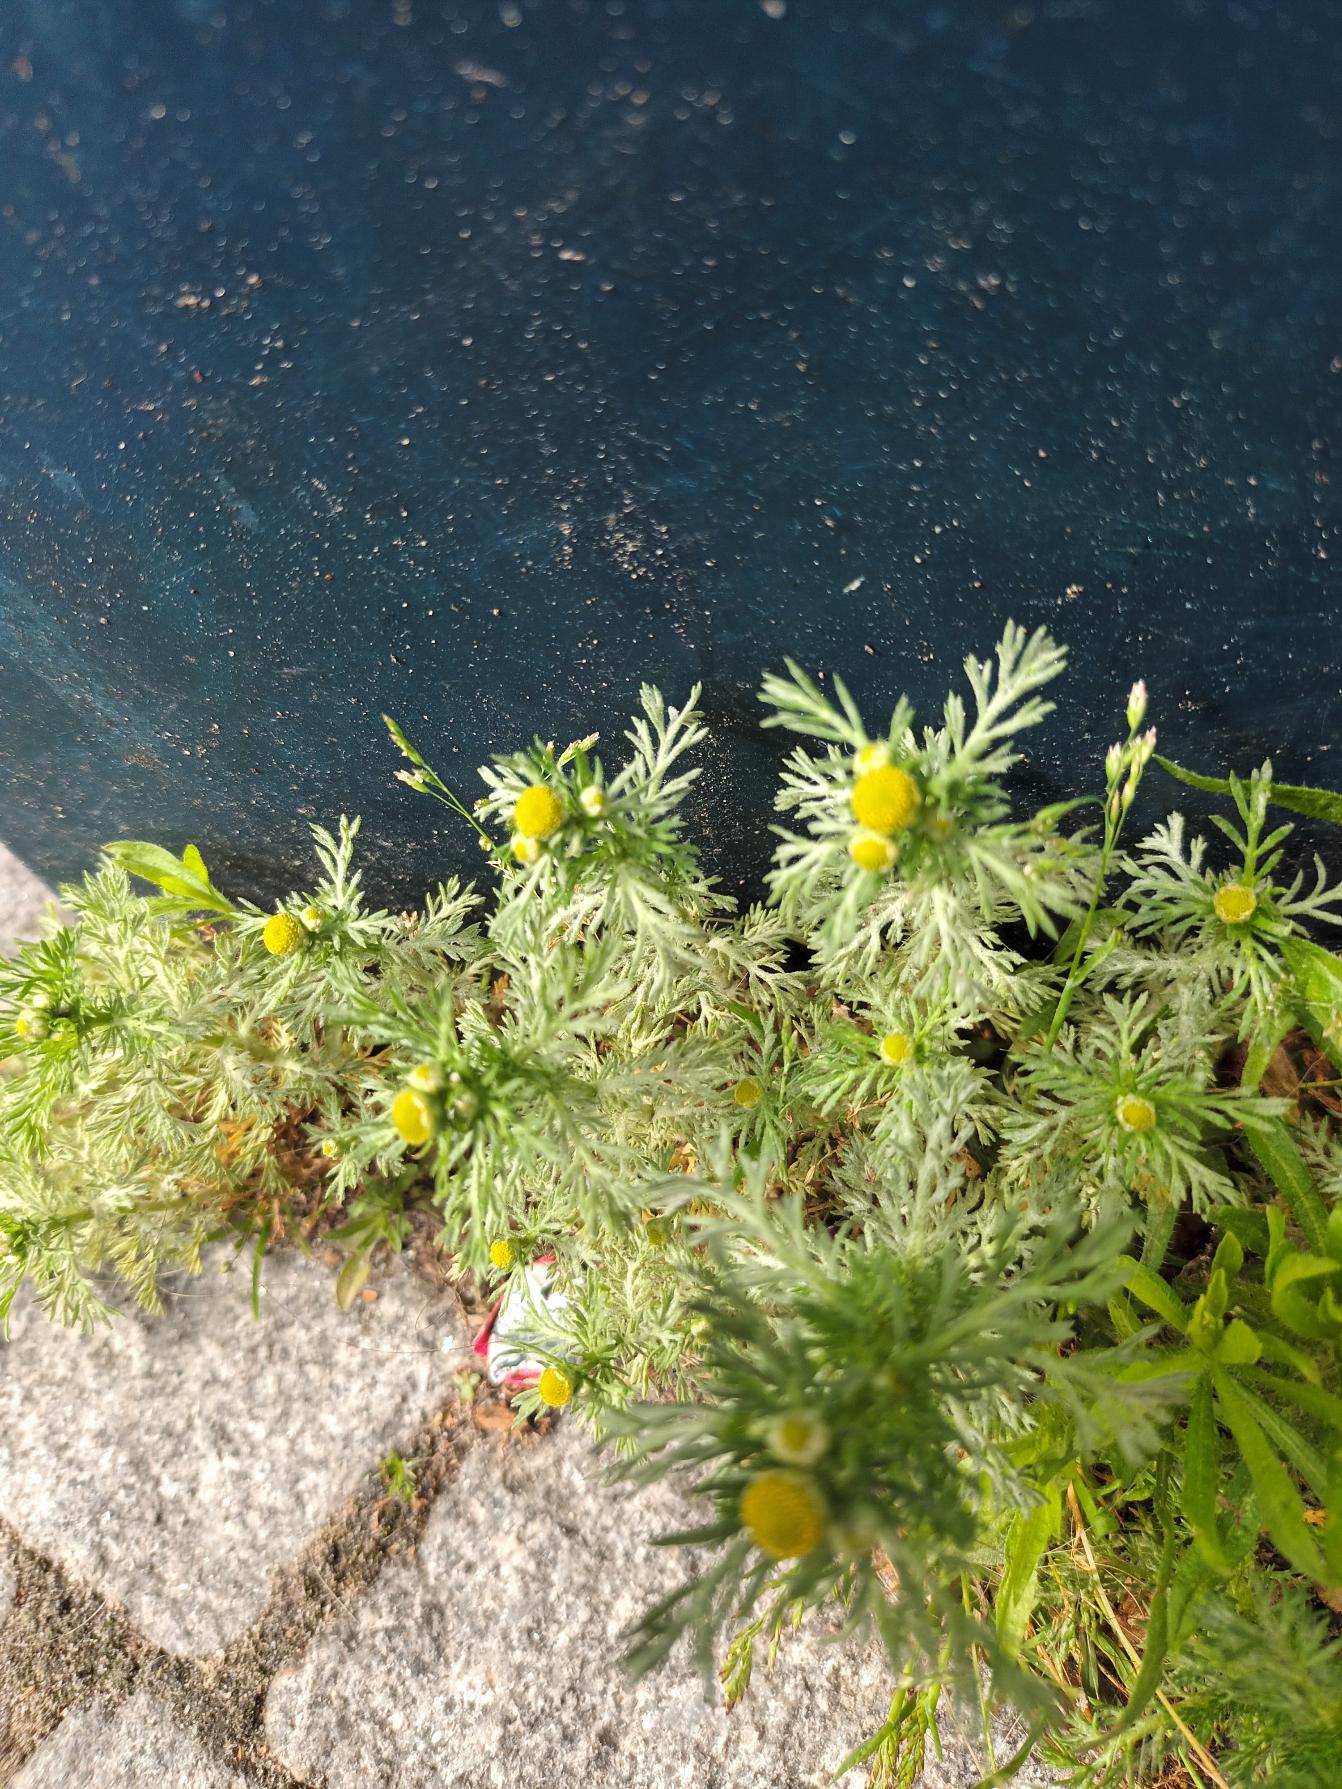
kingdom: Plantae
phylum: Tracheophyta
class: Magnoliopsida
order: Asterales
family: Asteraceae
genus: Matricaria
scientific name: Matricaria discoidea
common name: Skive-kamille
